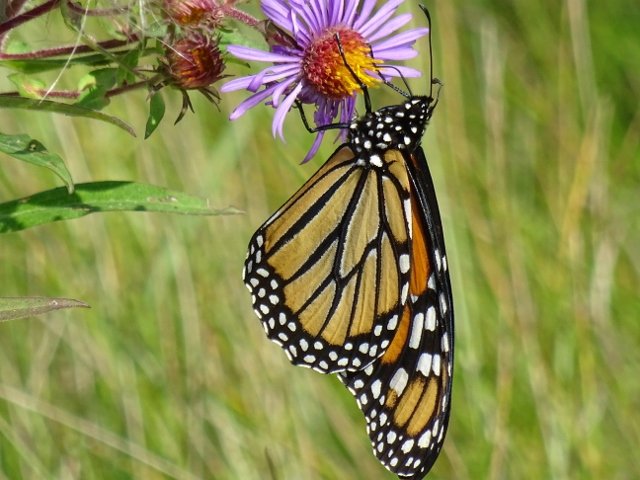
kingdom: Animalia
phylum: Arthropoda
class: Insecta
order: Lepidoptera
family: Nymphalidae
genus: Danaus
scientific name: Danaus plexippus
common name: Monarch
